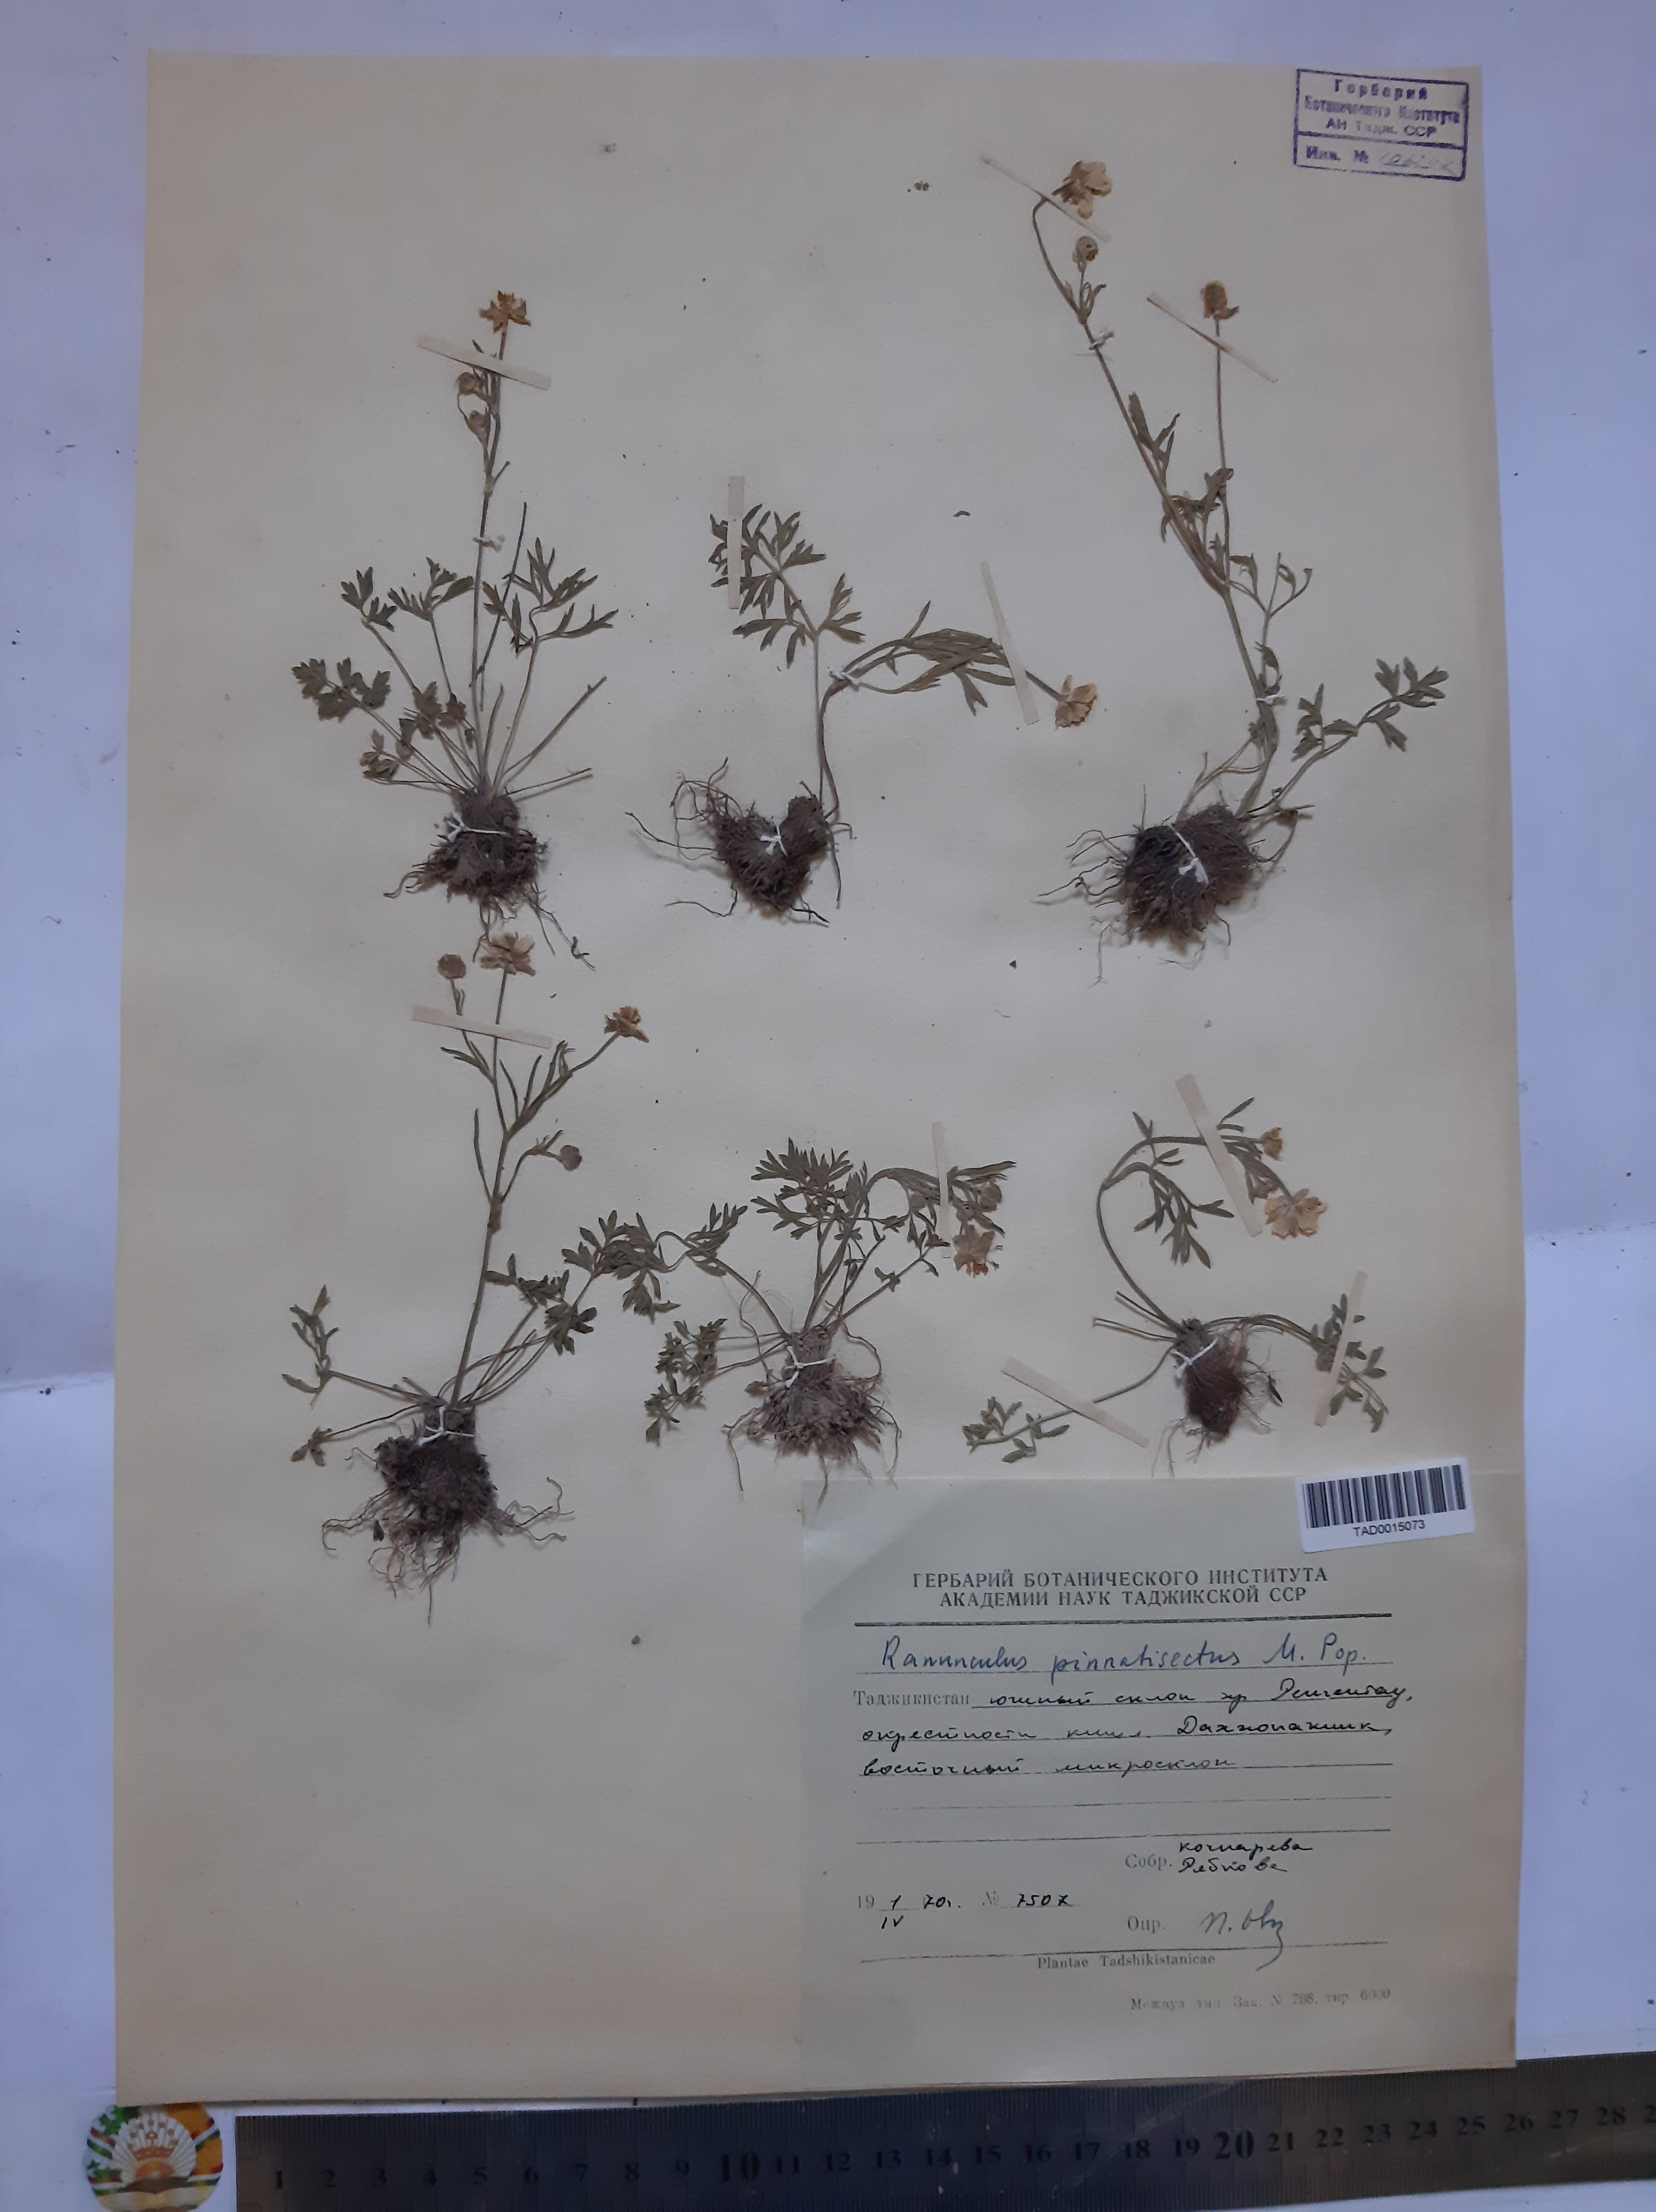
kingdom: Plantae
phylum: Tracheophyta
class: Magnoliopsida
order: Ranunculales
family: Ranunculaceae
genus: Ranunculus
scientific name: Ranunculus pinnatisectus
